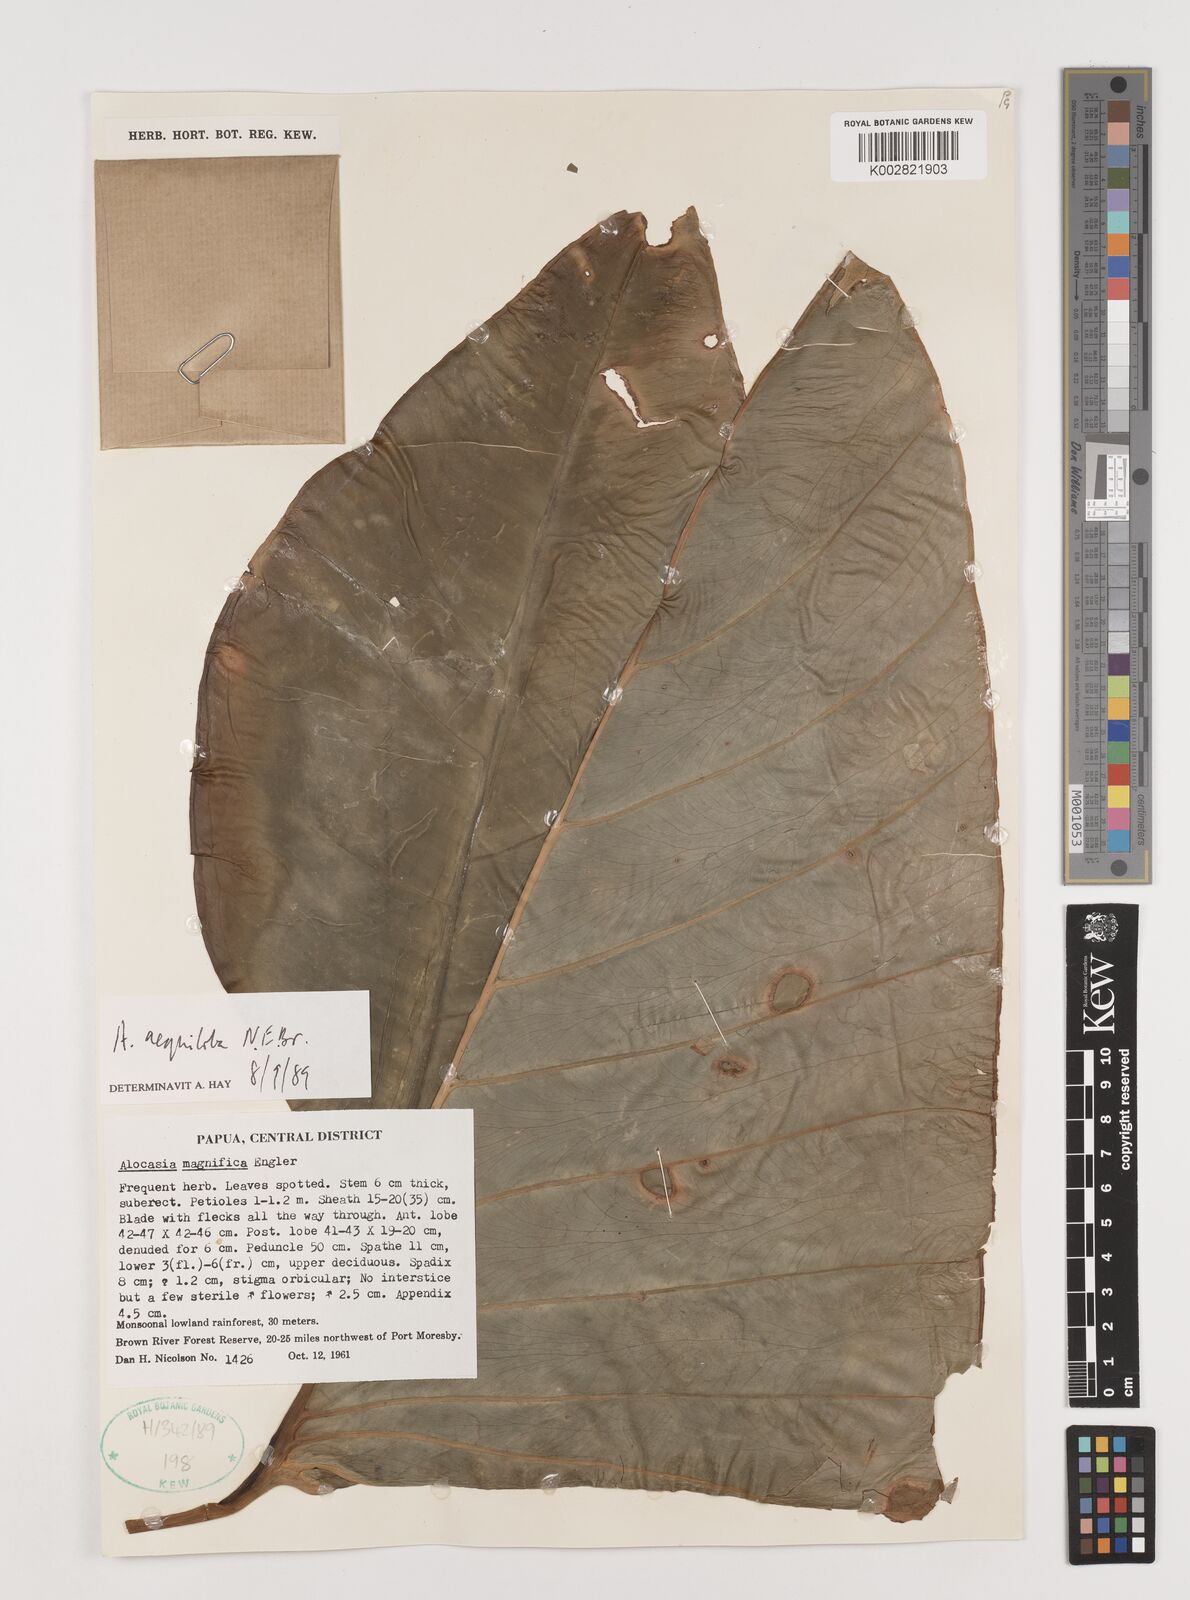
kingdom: Plantae
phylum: Tracheophyta
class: Liliopsida
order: Alismatales
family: Araceae
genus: Alocasia
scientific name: Alocasia aequiloba
